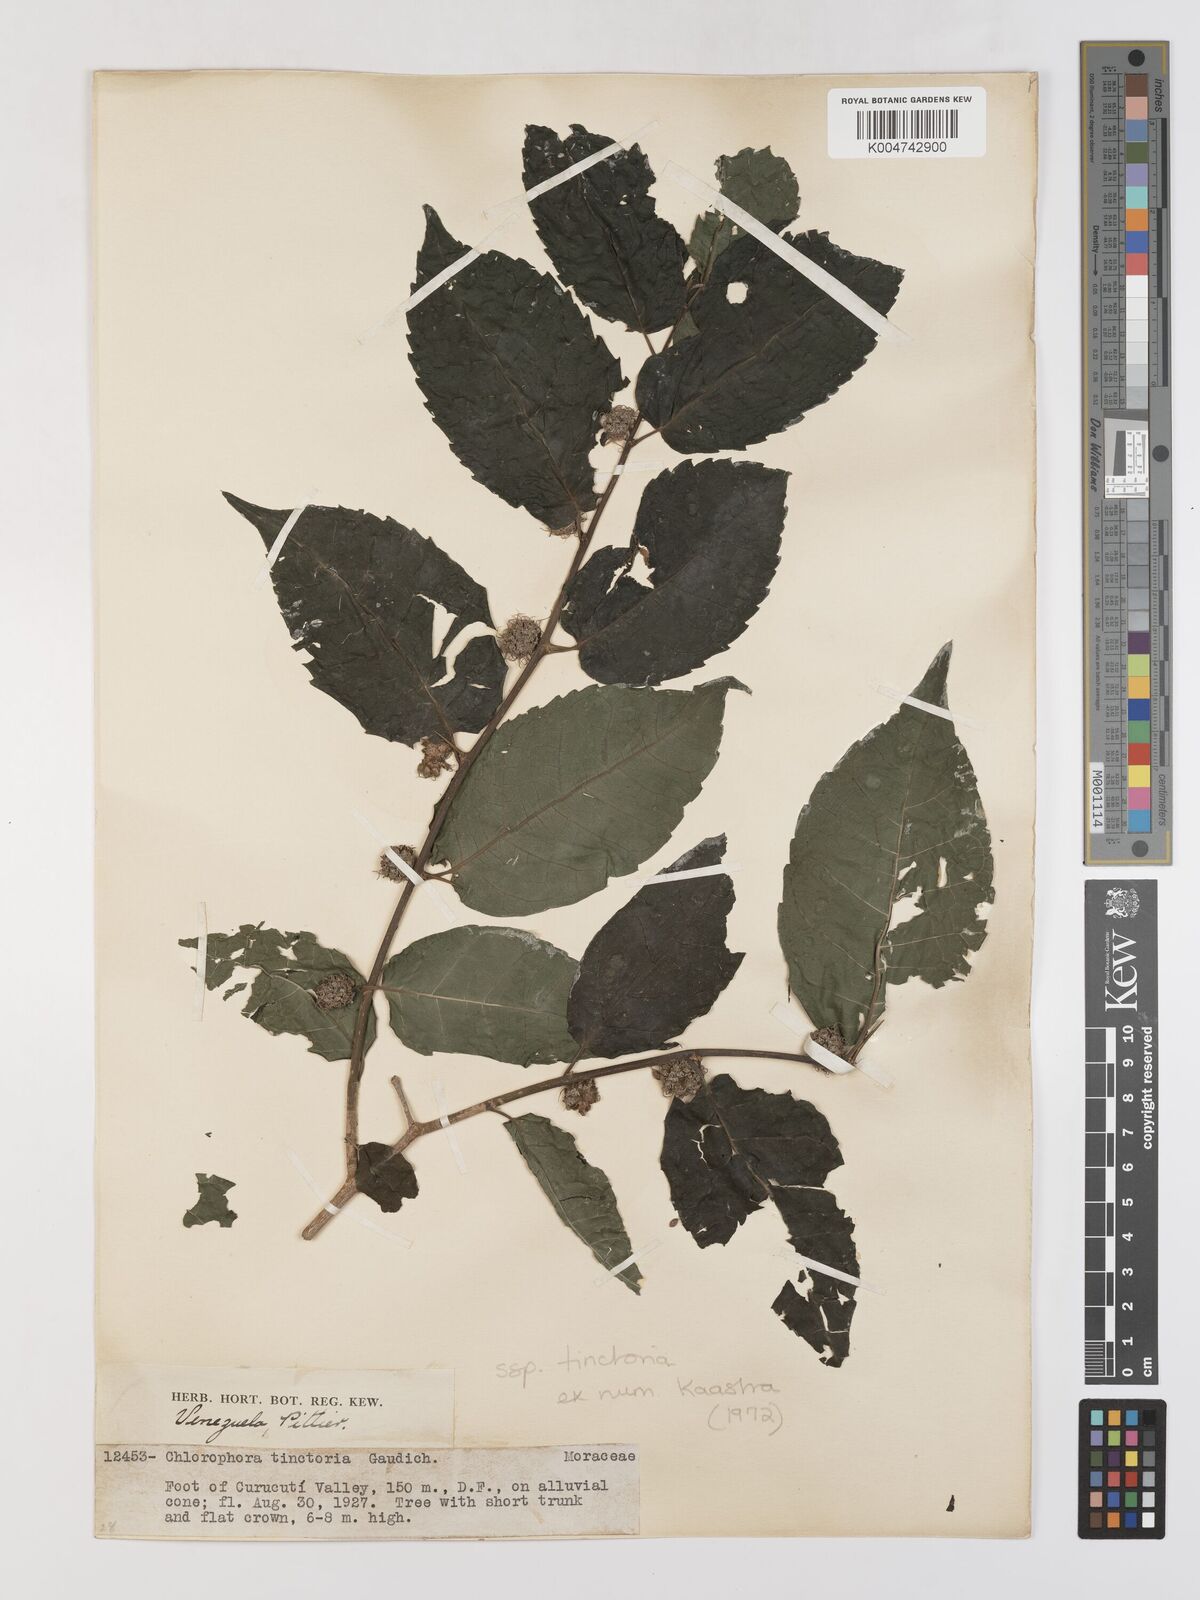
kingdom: Plantae
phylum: Tracheophyta
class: Magnoliopsida
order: Rosales
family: Moraceae
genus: Maclura
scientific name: Maclura tinctoria
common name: Old fustic
